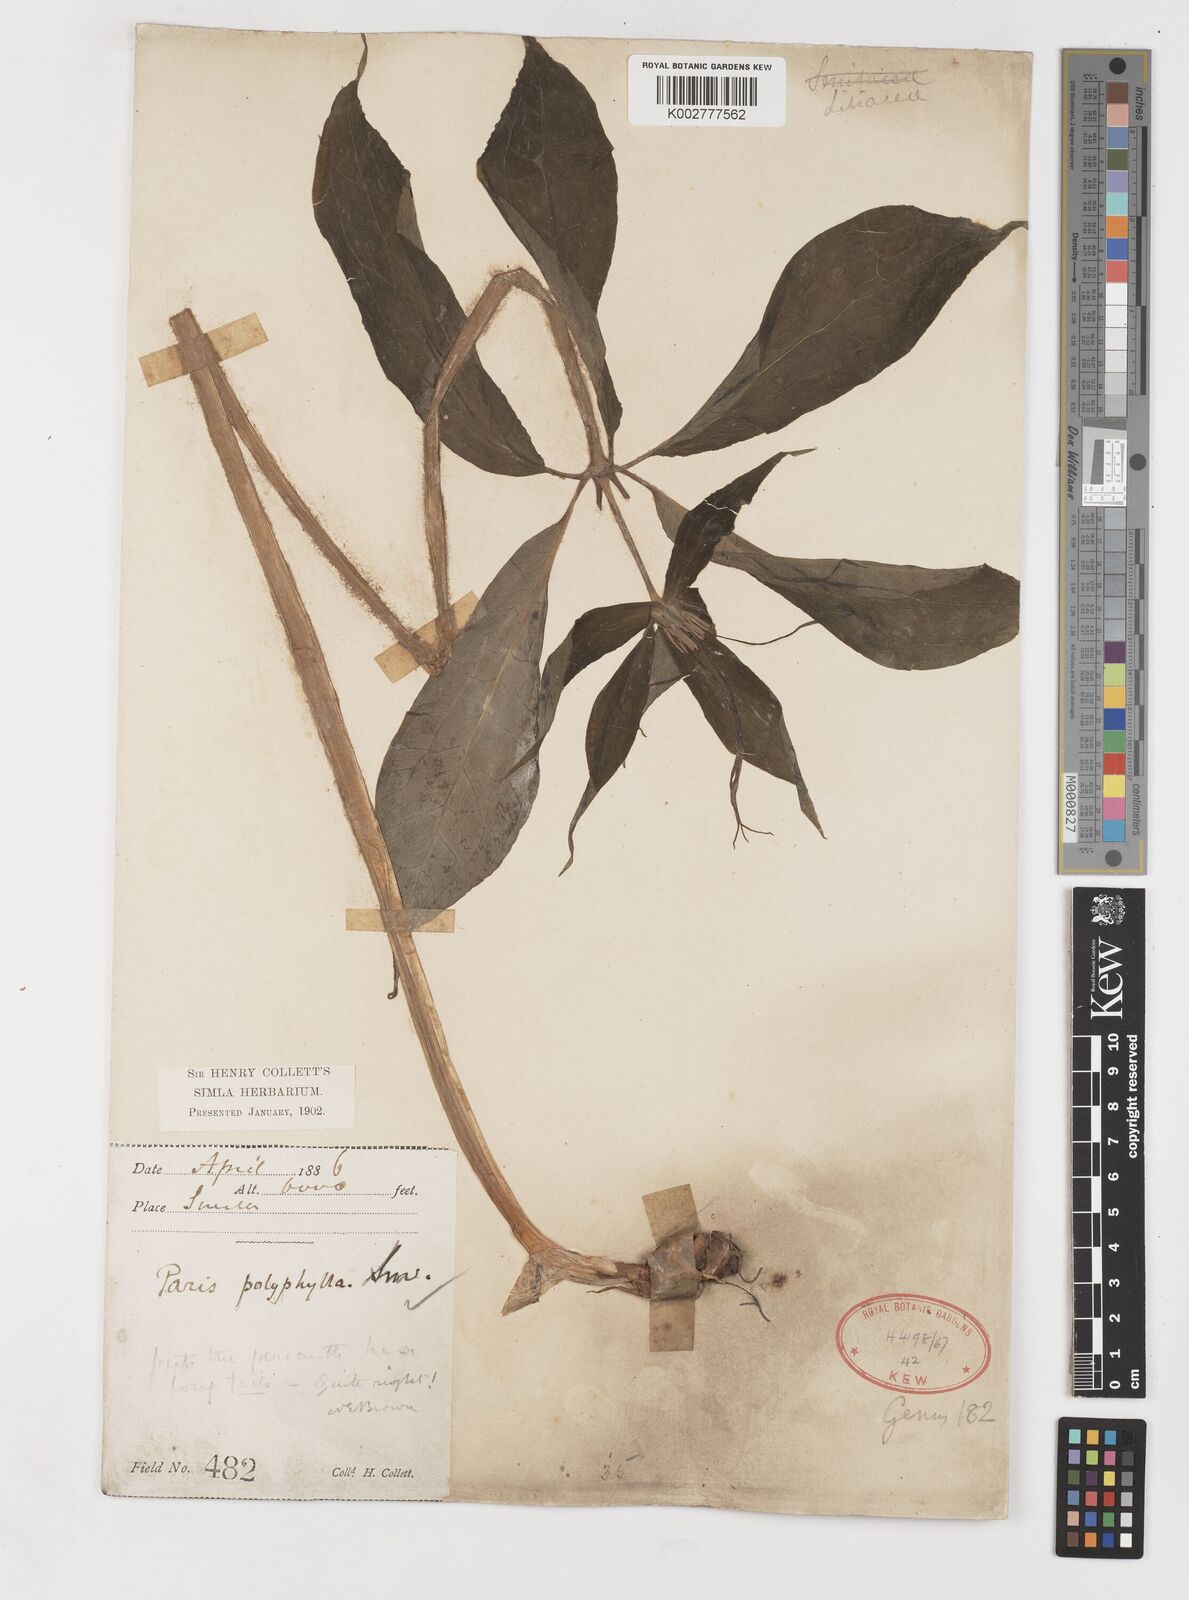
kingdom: Plantae
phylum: Tracheophyta
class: Liliopsida
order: Liliales
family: Melanthiaceae
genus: Paris
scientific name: Paris polyphylla
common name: Love apple
